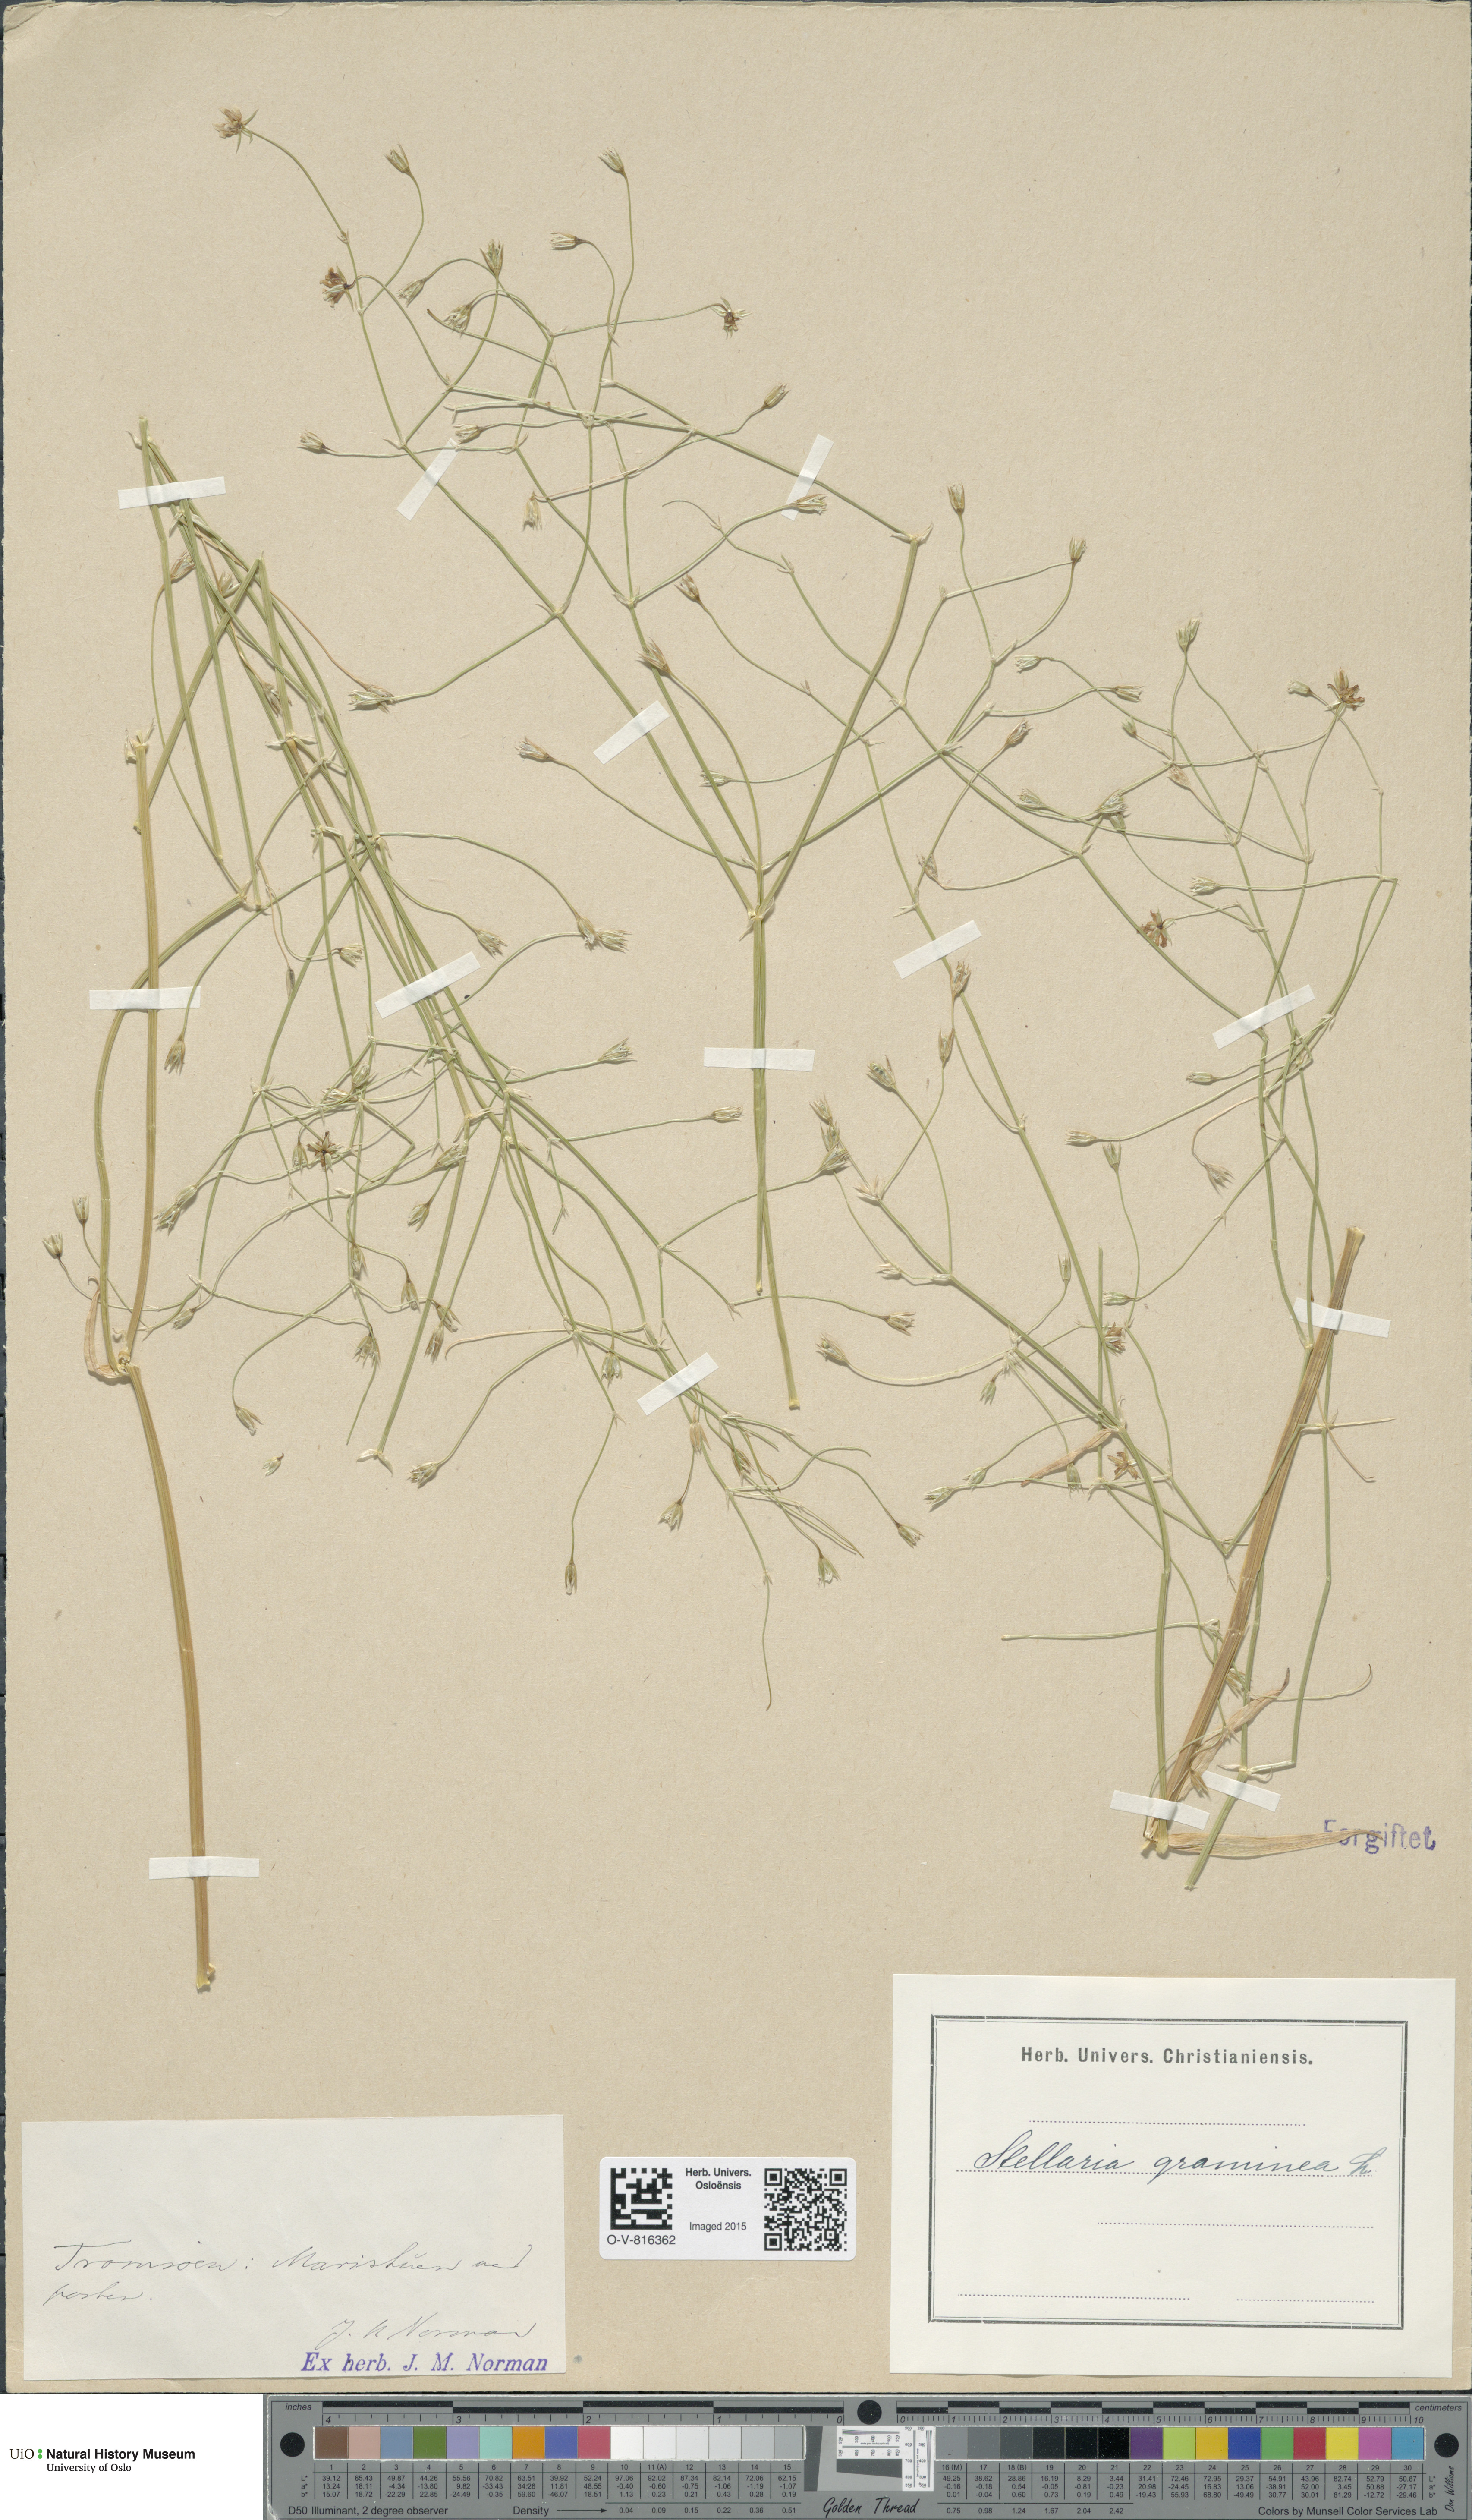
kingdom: Plantae
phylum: Tracheophyta
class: Magnoliopsida
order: Caryophyllales
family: Caryophyllaceae
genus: Stellaria
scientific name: Stellaria graminea
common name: Grass-like starwort
